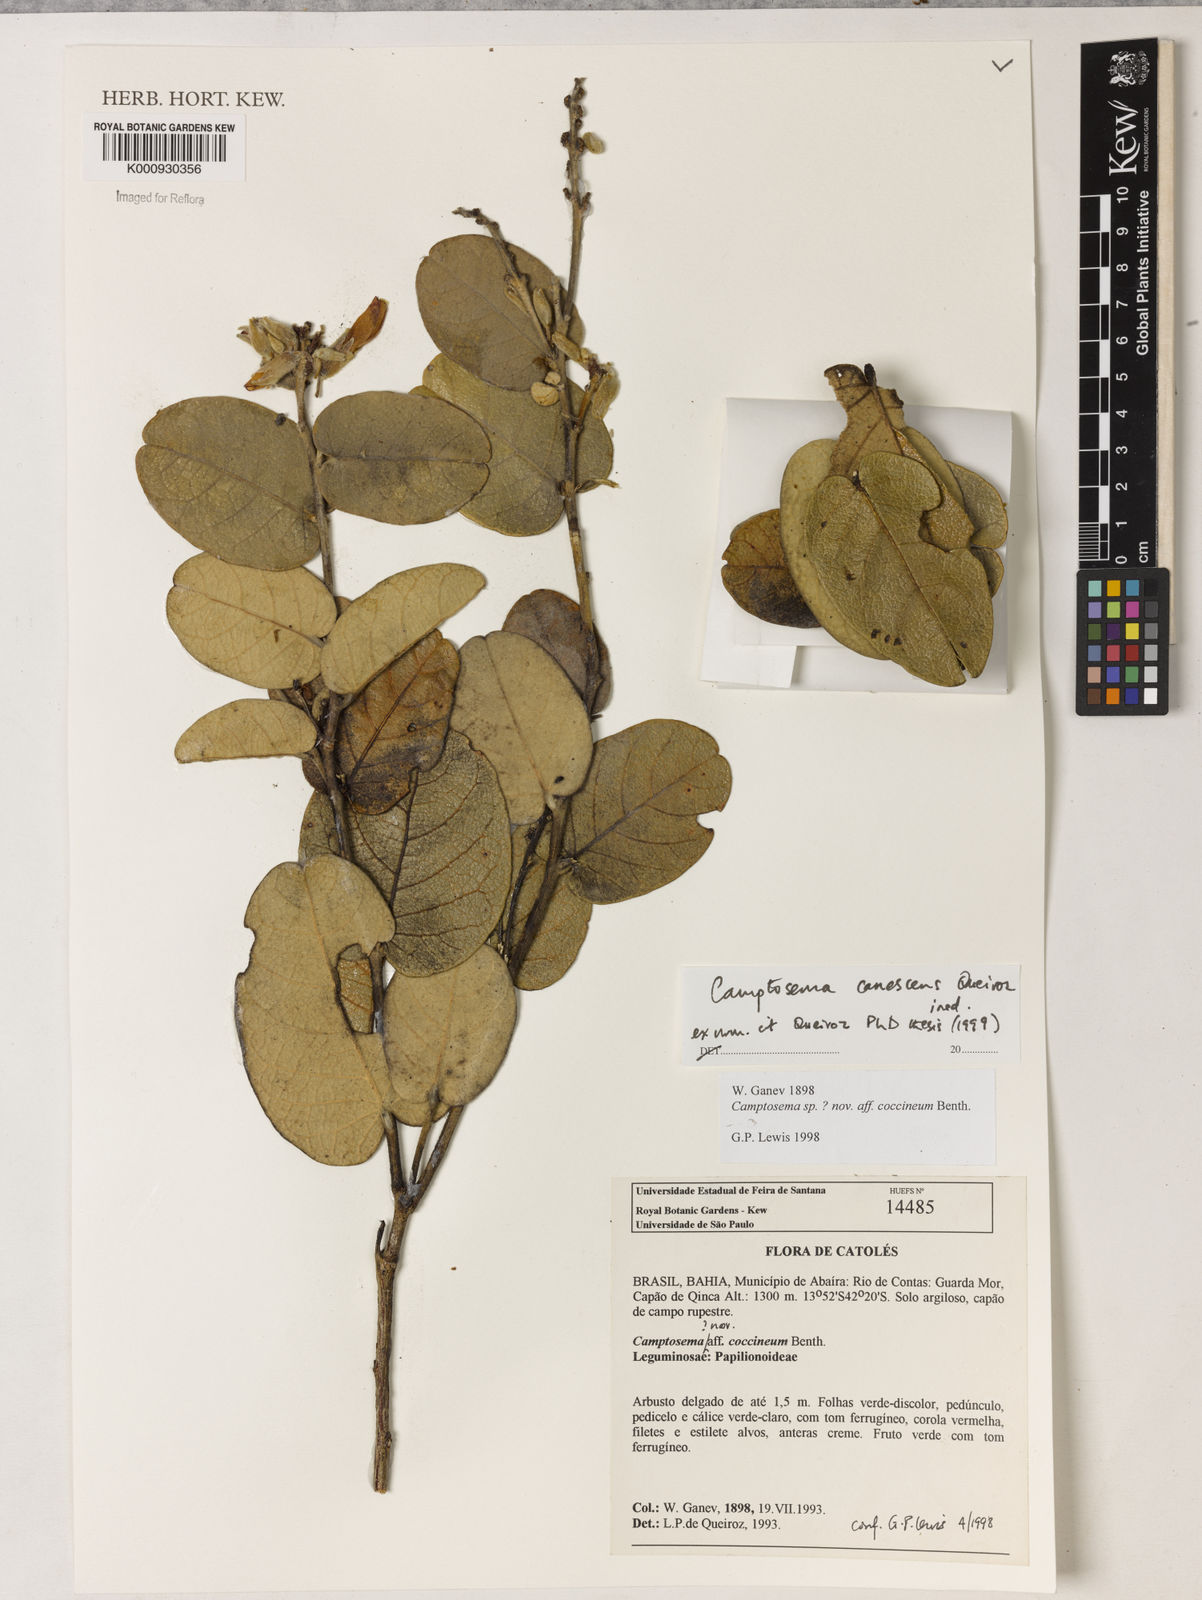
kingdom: Plantae
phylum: Tracheophyta
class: Magnoliopsida
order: Fabales
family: Fabaceae
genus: Camptosema
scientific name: Camptosema
